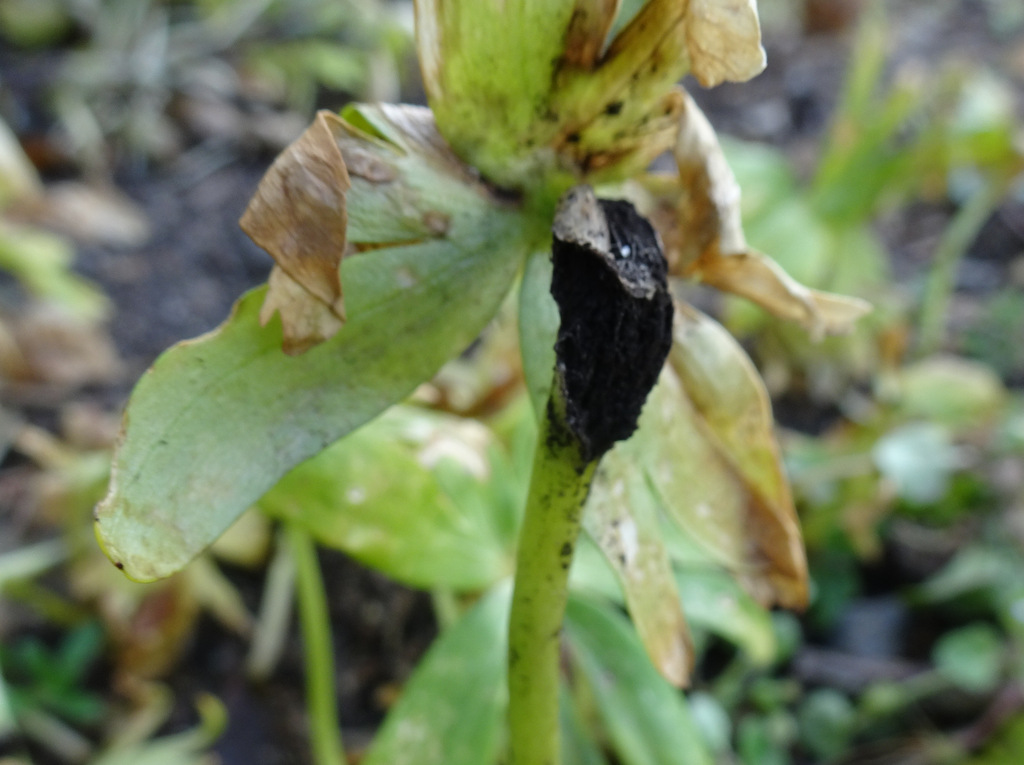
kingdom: Fungi
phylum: Basidiomycota
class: Ustilaginomycetes
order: Urocystidales
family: Urocystidaceae
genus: Urocystis
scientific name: Urocystis eranthidis
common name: erantis-brand
